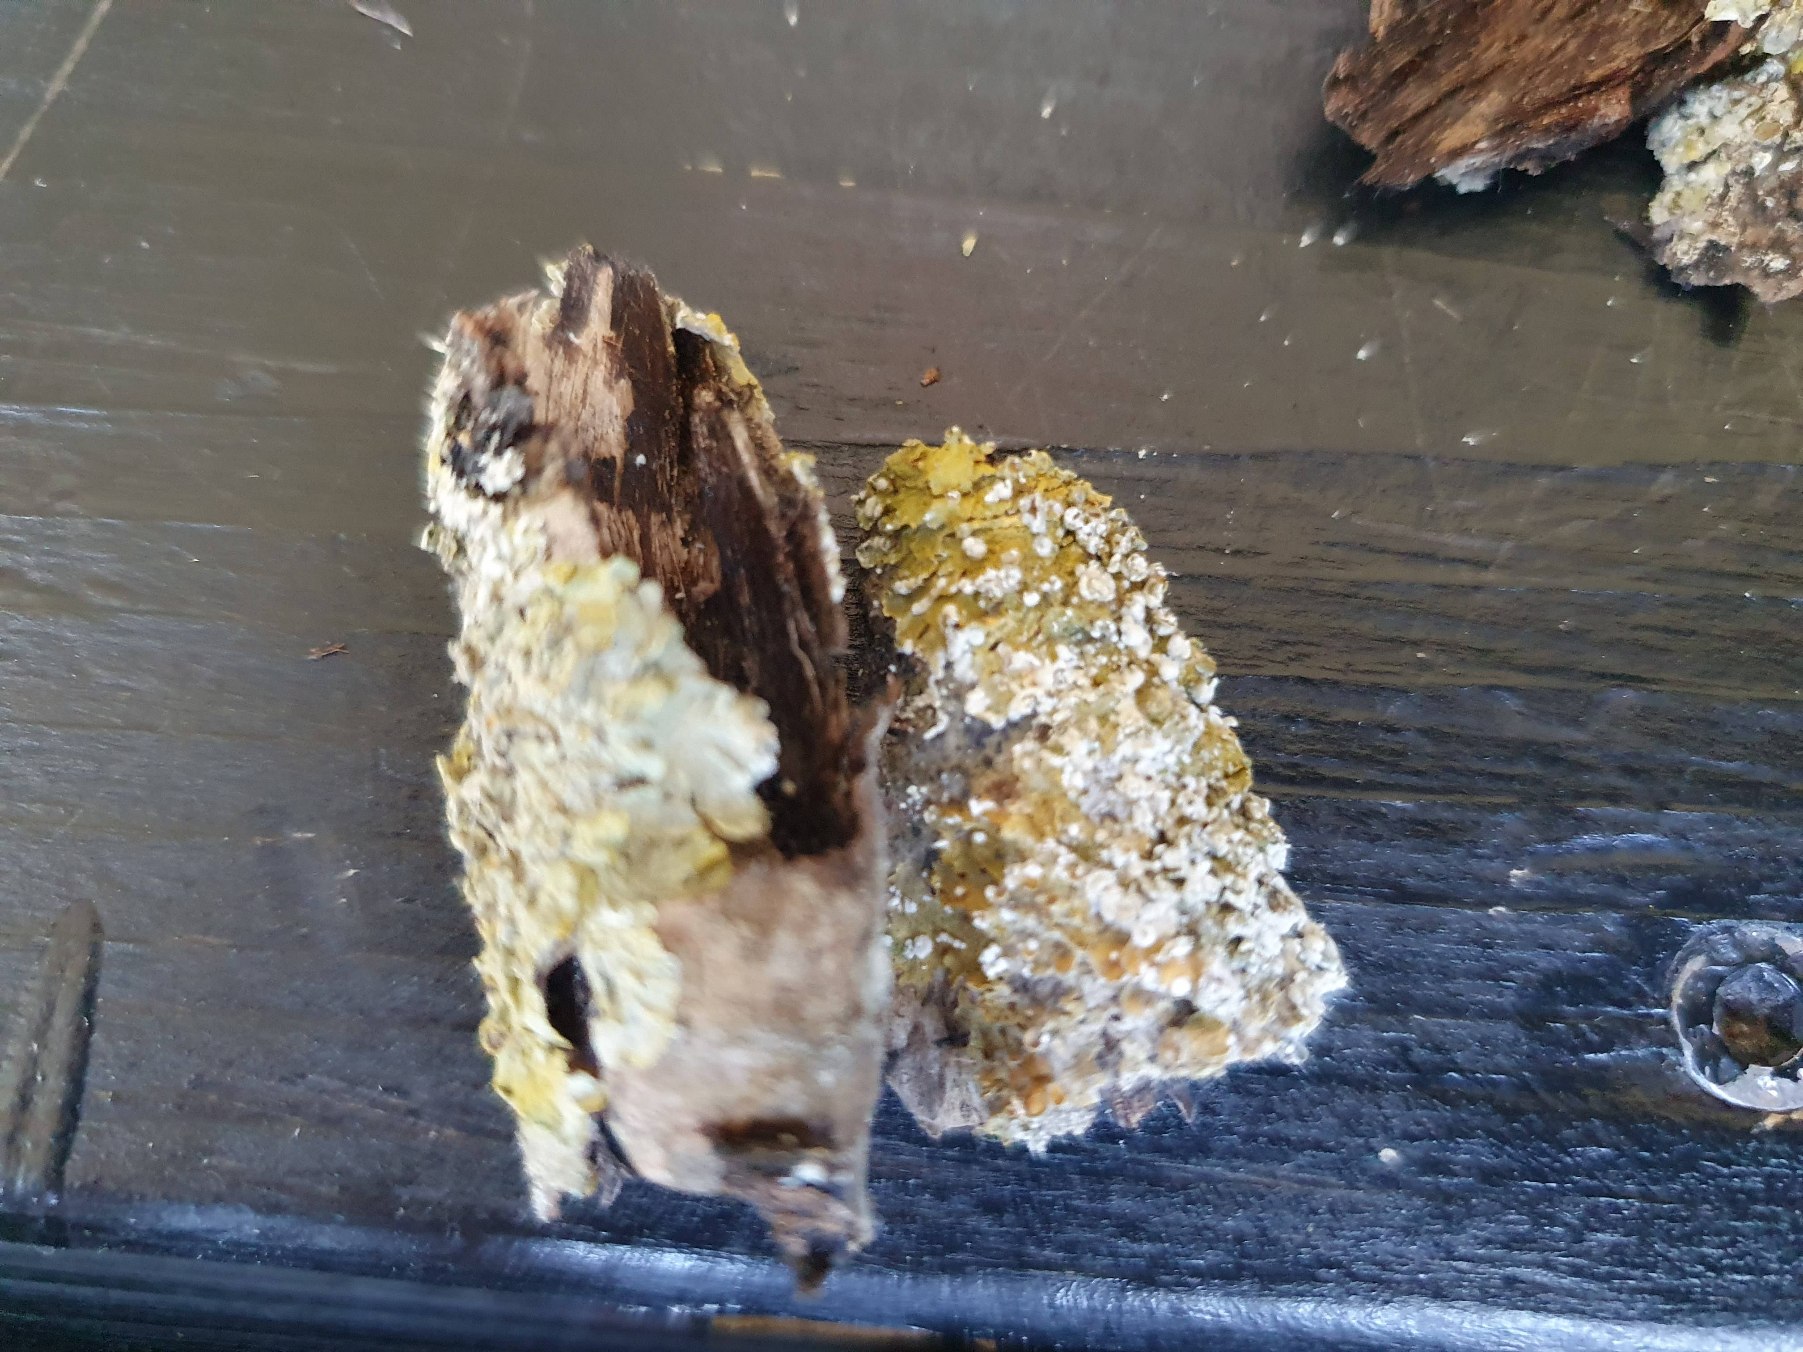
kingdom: Fungi
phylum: Ascomycota
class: Lecanoromycetes
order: Teloschistales
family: Teloschistaceae
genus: Xanthoria
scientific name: Xanthoria parietina
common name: Almindelig væggelav
